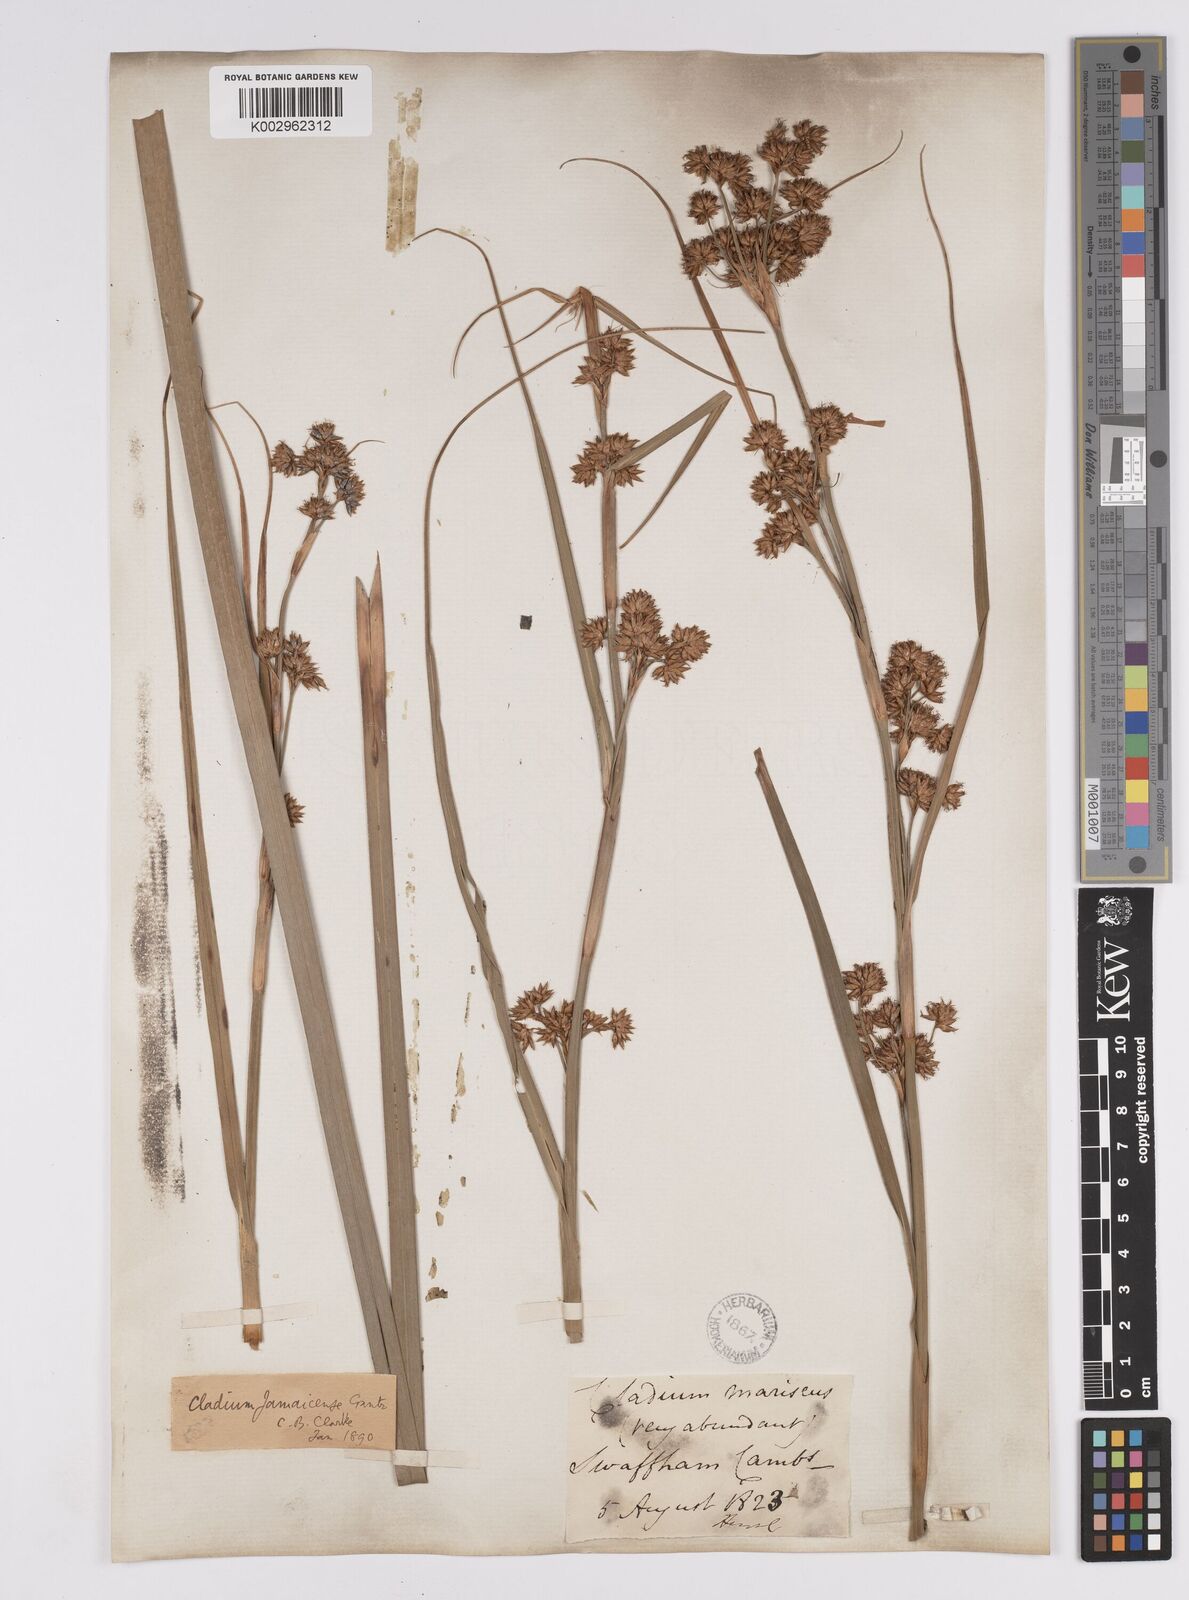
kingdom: Plantae
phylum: Tracheophyta
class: Liliopsida
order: Poales
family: Cyperaceae
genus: Cladium
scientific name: Cladium mariscus
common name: Great fen-sedge
